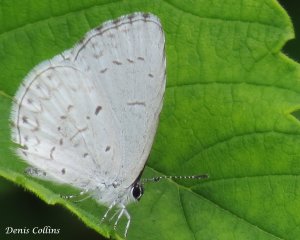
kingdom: Animalia
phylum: Arthropoda
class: Insecta
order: Lepidoptera
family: Lycaenidae
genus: Cyaniris
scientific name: Cyaniris neglecta
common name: Summer Azure
